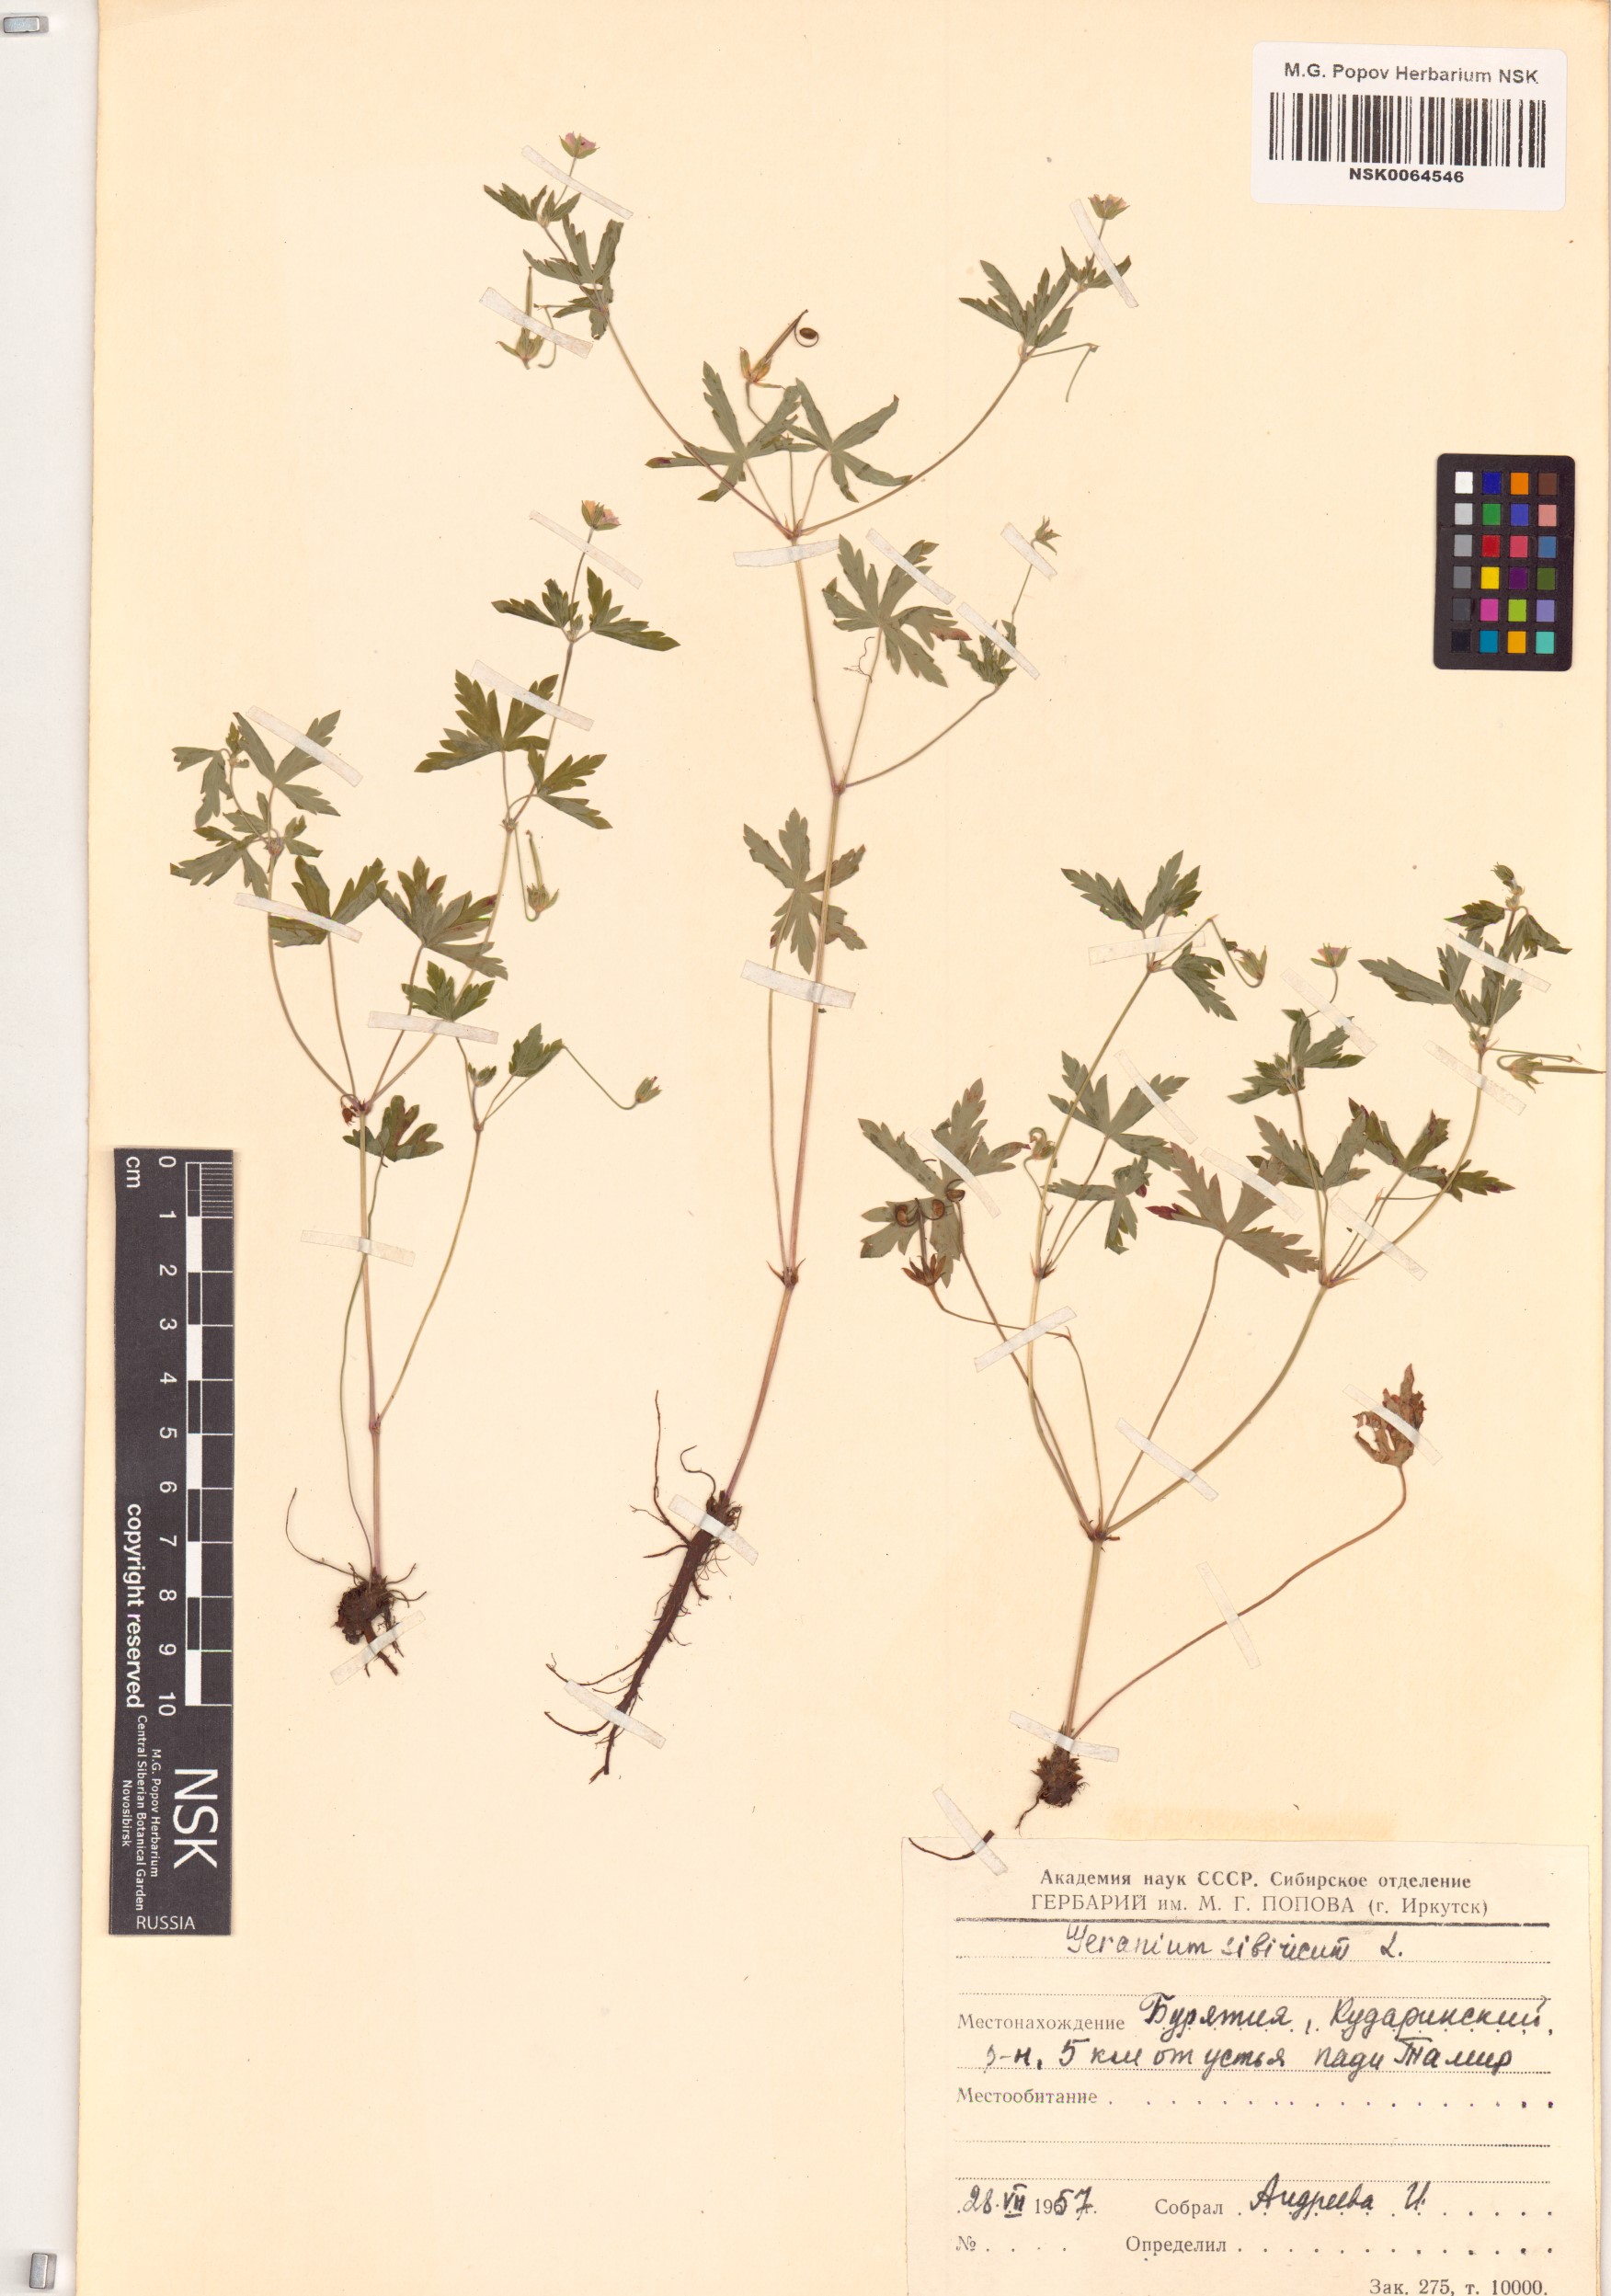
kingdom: Plantae
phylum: Tracheophyta
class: Magnoliopsida
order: Geraniales
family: Geraniaceae
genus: Geranium
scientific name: Geranium sibiricum
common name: Siberian crane's-bill
